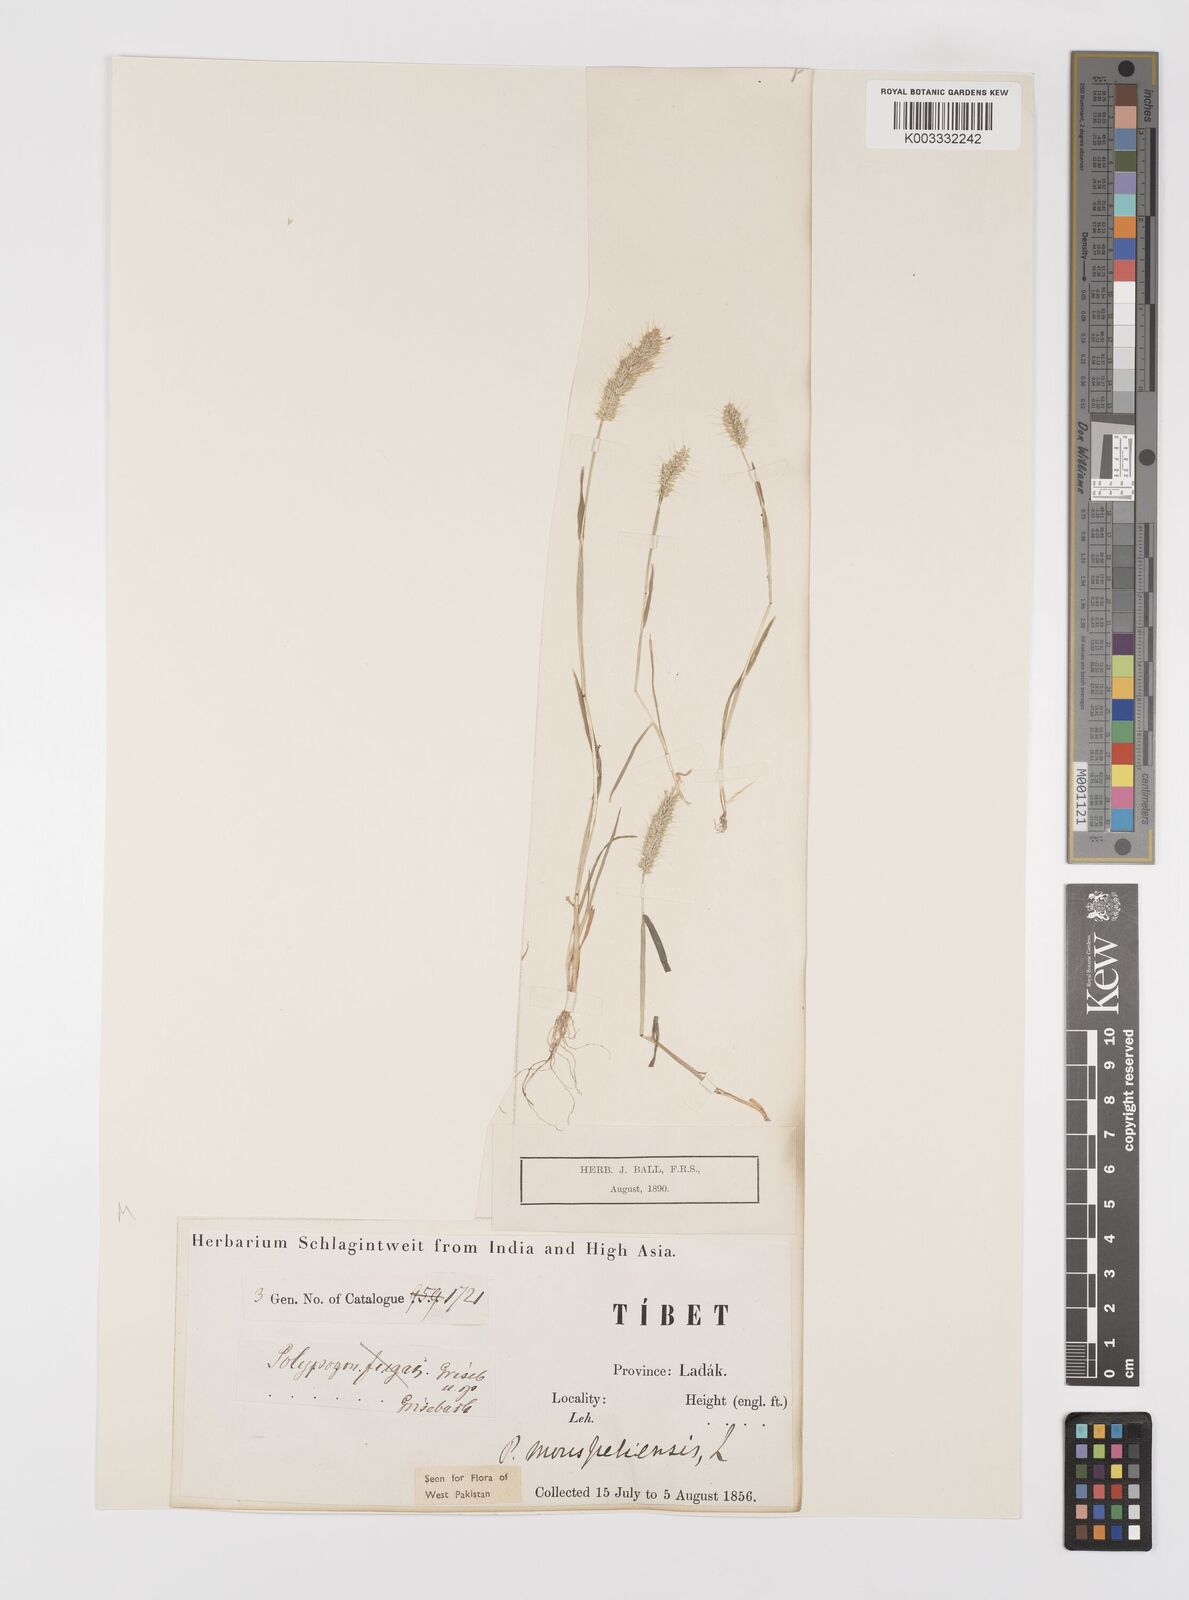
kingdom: Plantae
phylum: Tracheophyta
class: Liliopsida
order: Poales
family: Poaceae
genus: Polypogon
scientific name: Polypogon monspeliensis
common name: Annual rabbitsfoot grass
